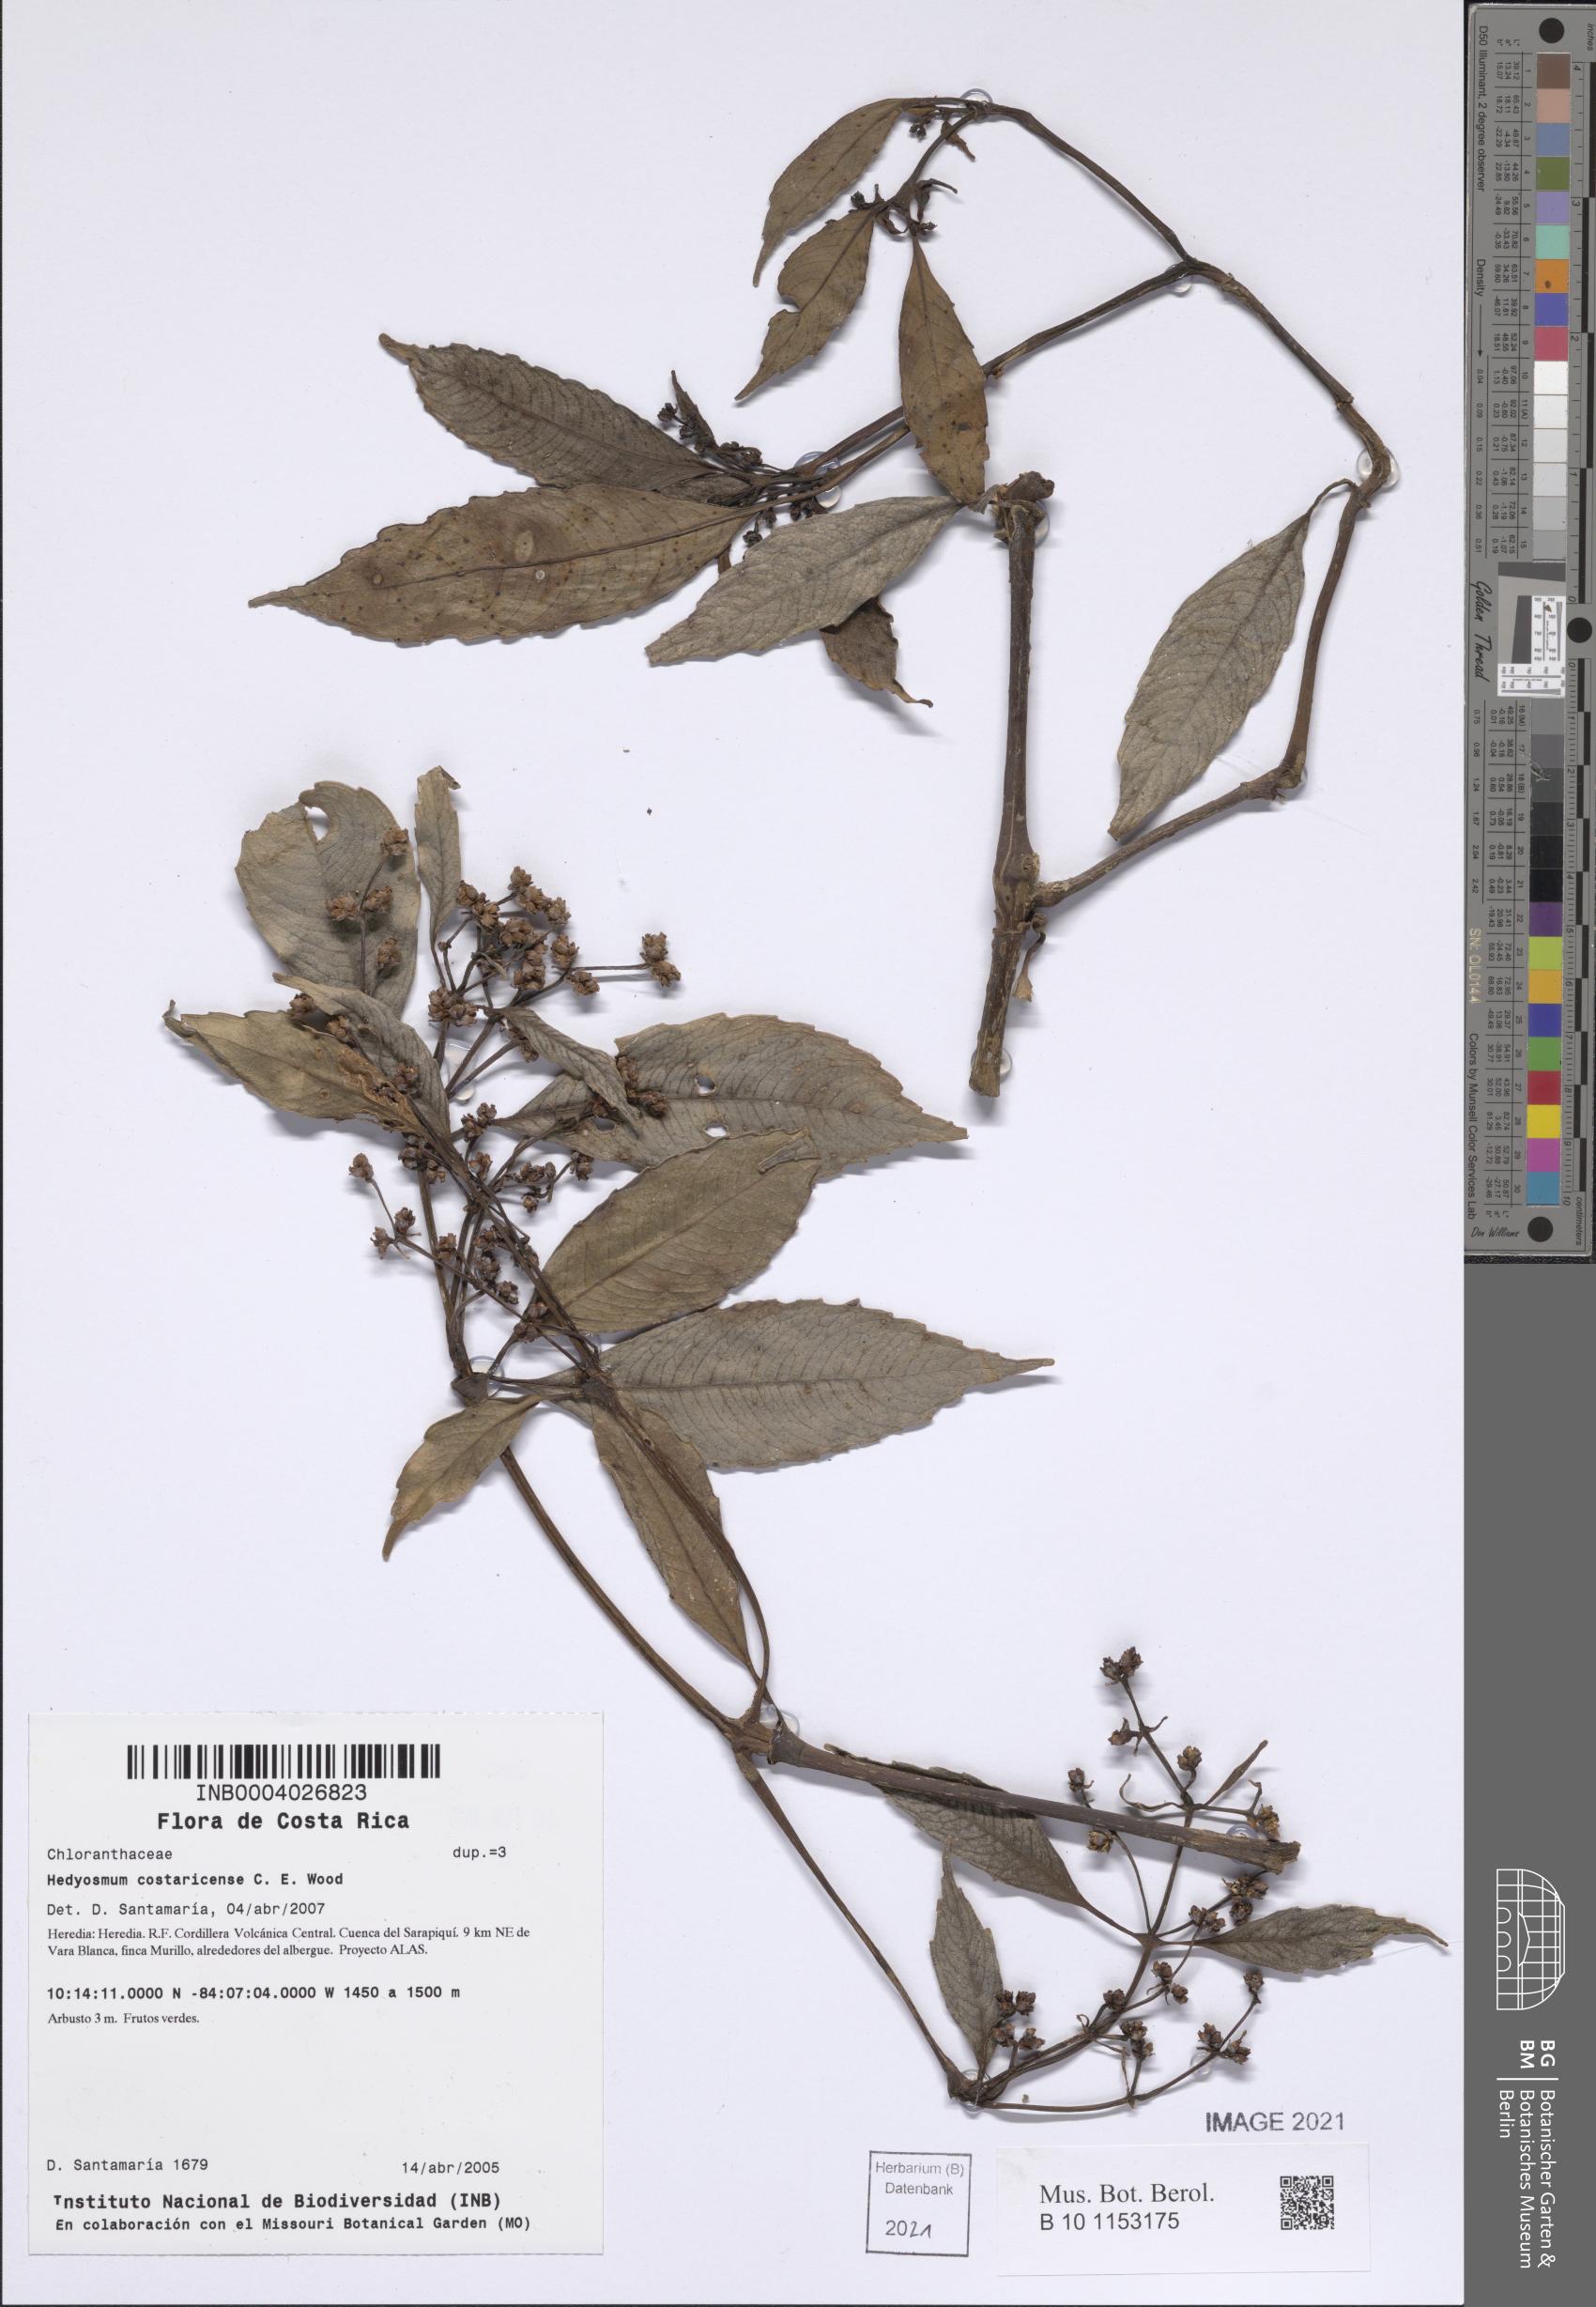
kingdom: Plantae
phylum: Tracheophyta
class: Magnoliopsida
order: Chloranthales
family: Chloranthaceae
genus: Hedyosmum
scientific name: Hedyosmum costaricense
